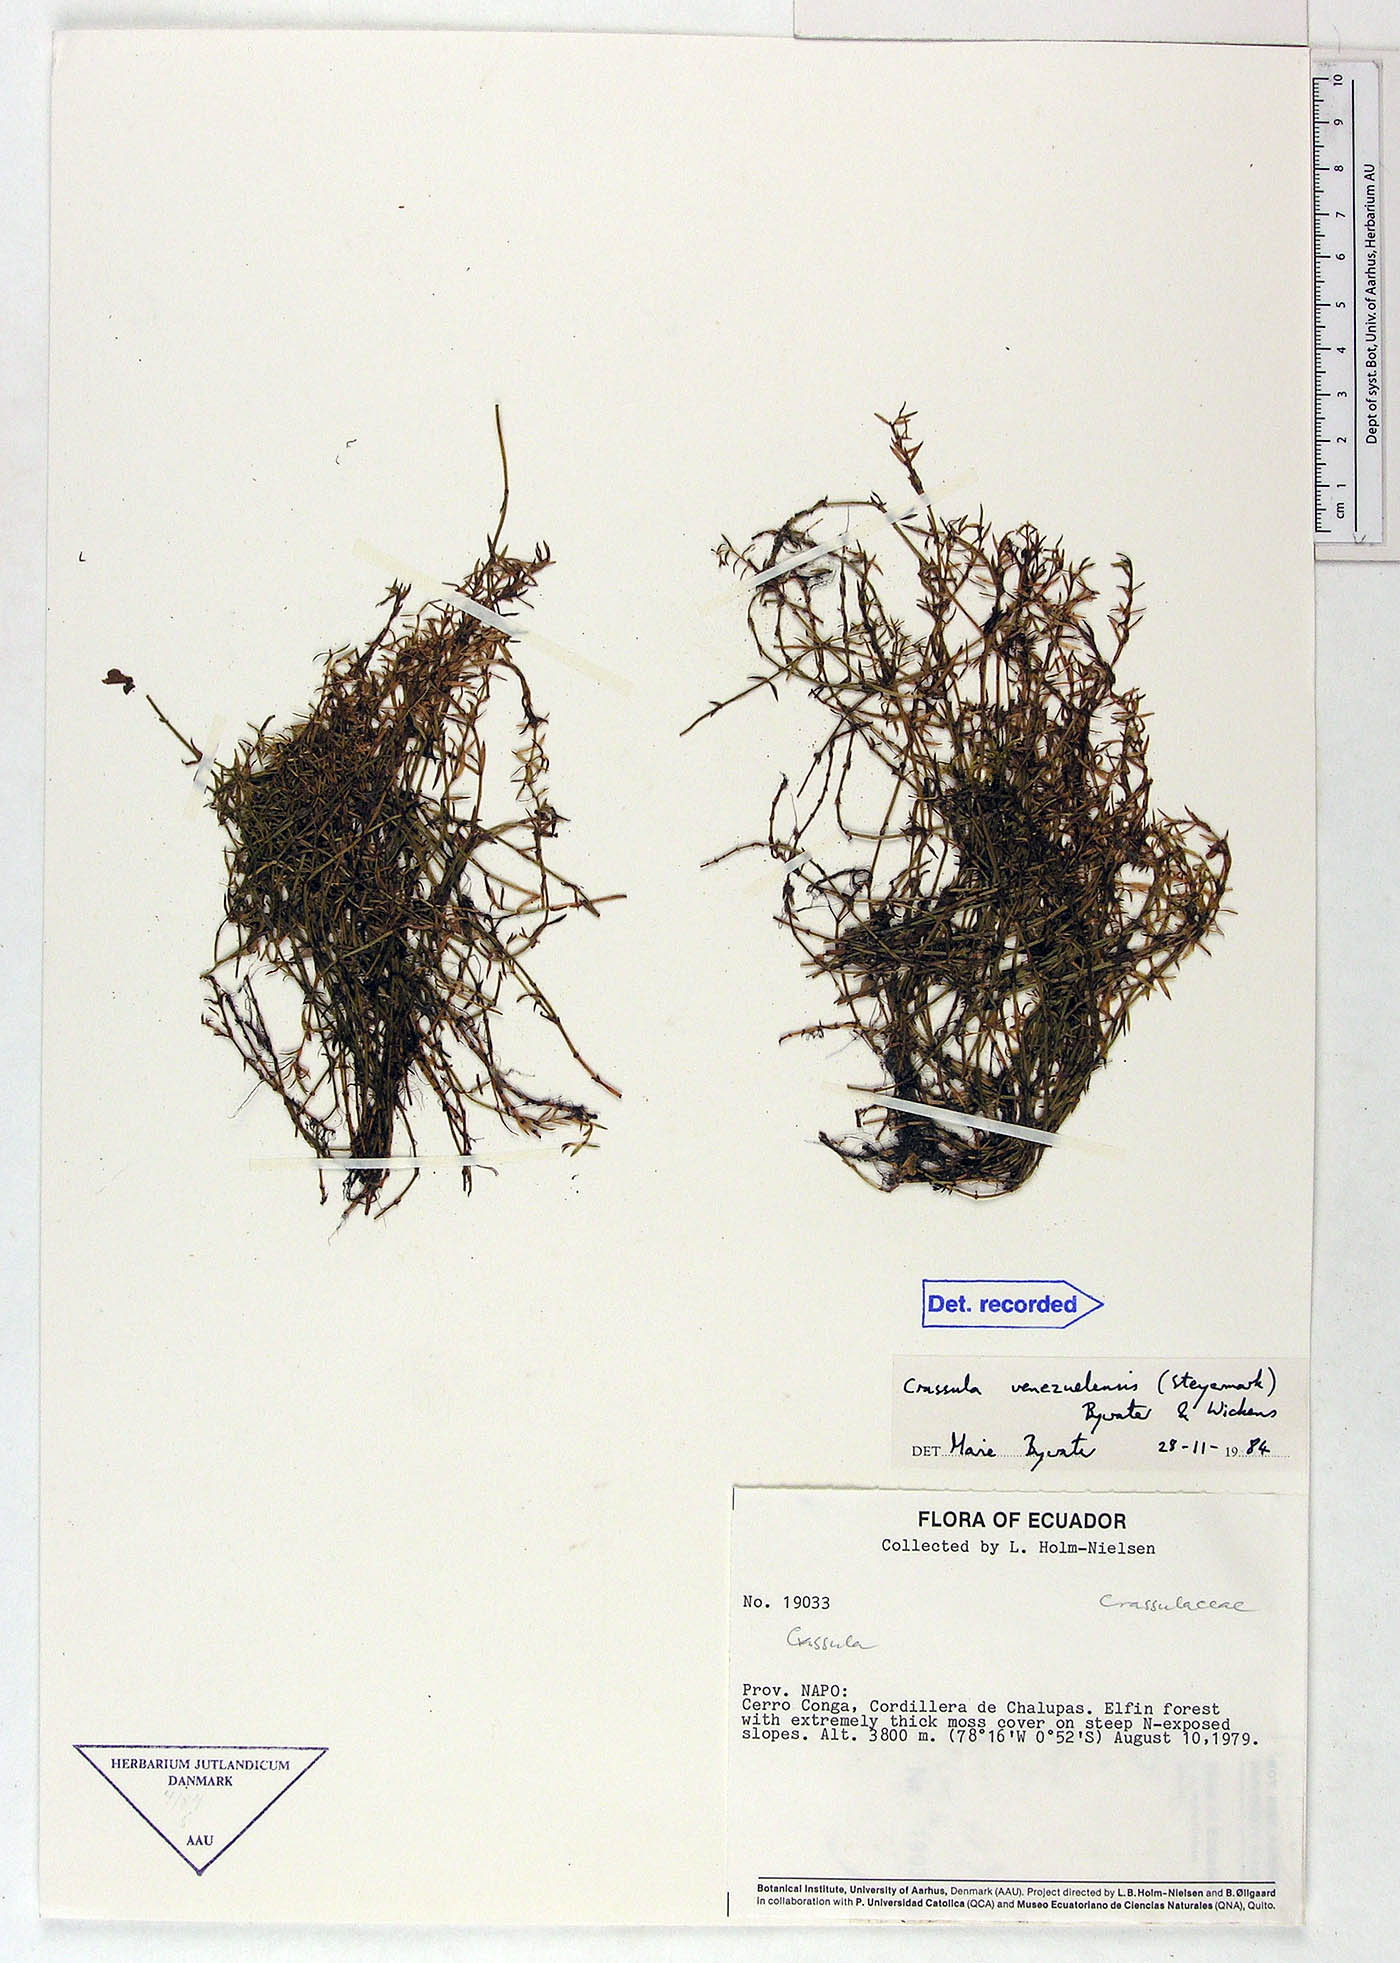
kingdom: Plantae
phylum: Tracheophyta
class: Magnoliopsida
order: Saxifragales
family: Crassulaceae
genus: Crassula
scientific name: Crassula venezuelensis
